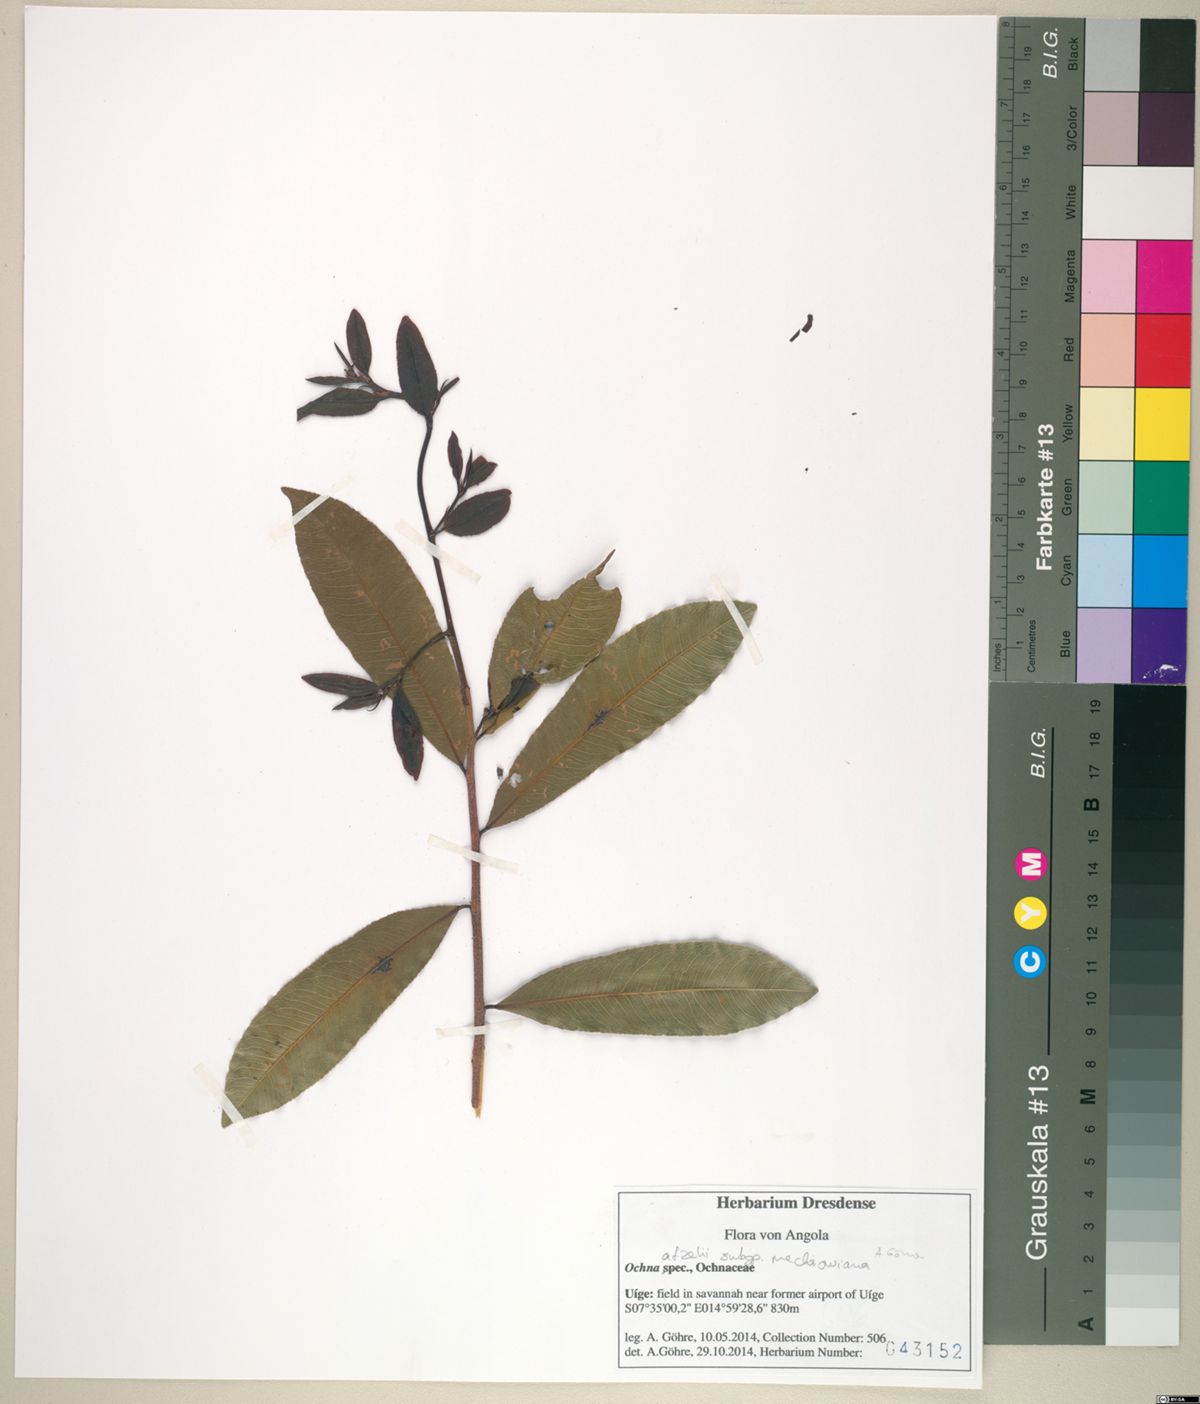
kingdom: Plantae
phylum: Tracheophyta
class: Magnoliopsida
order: Malpighiales
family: Ochnaceae
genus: Ochna
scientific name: Ochna afzelii
